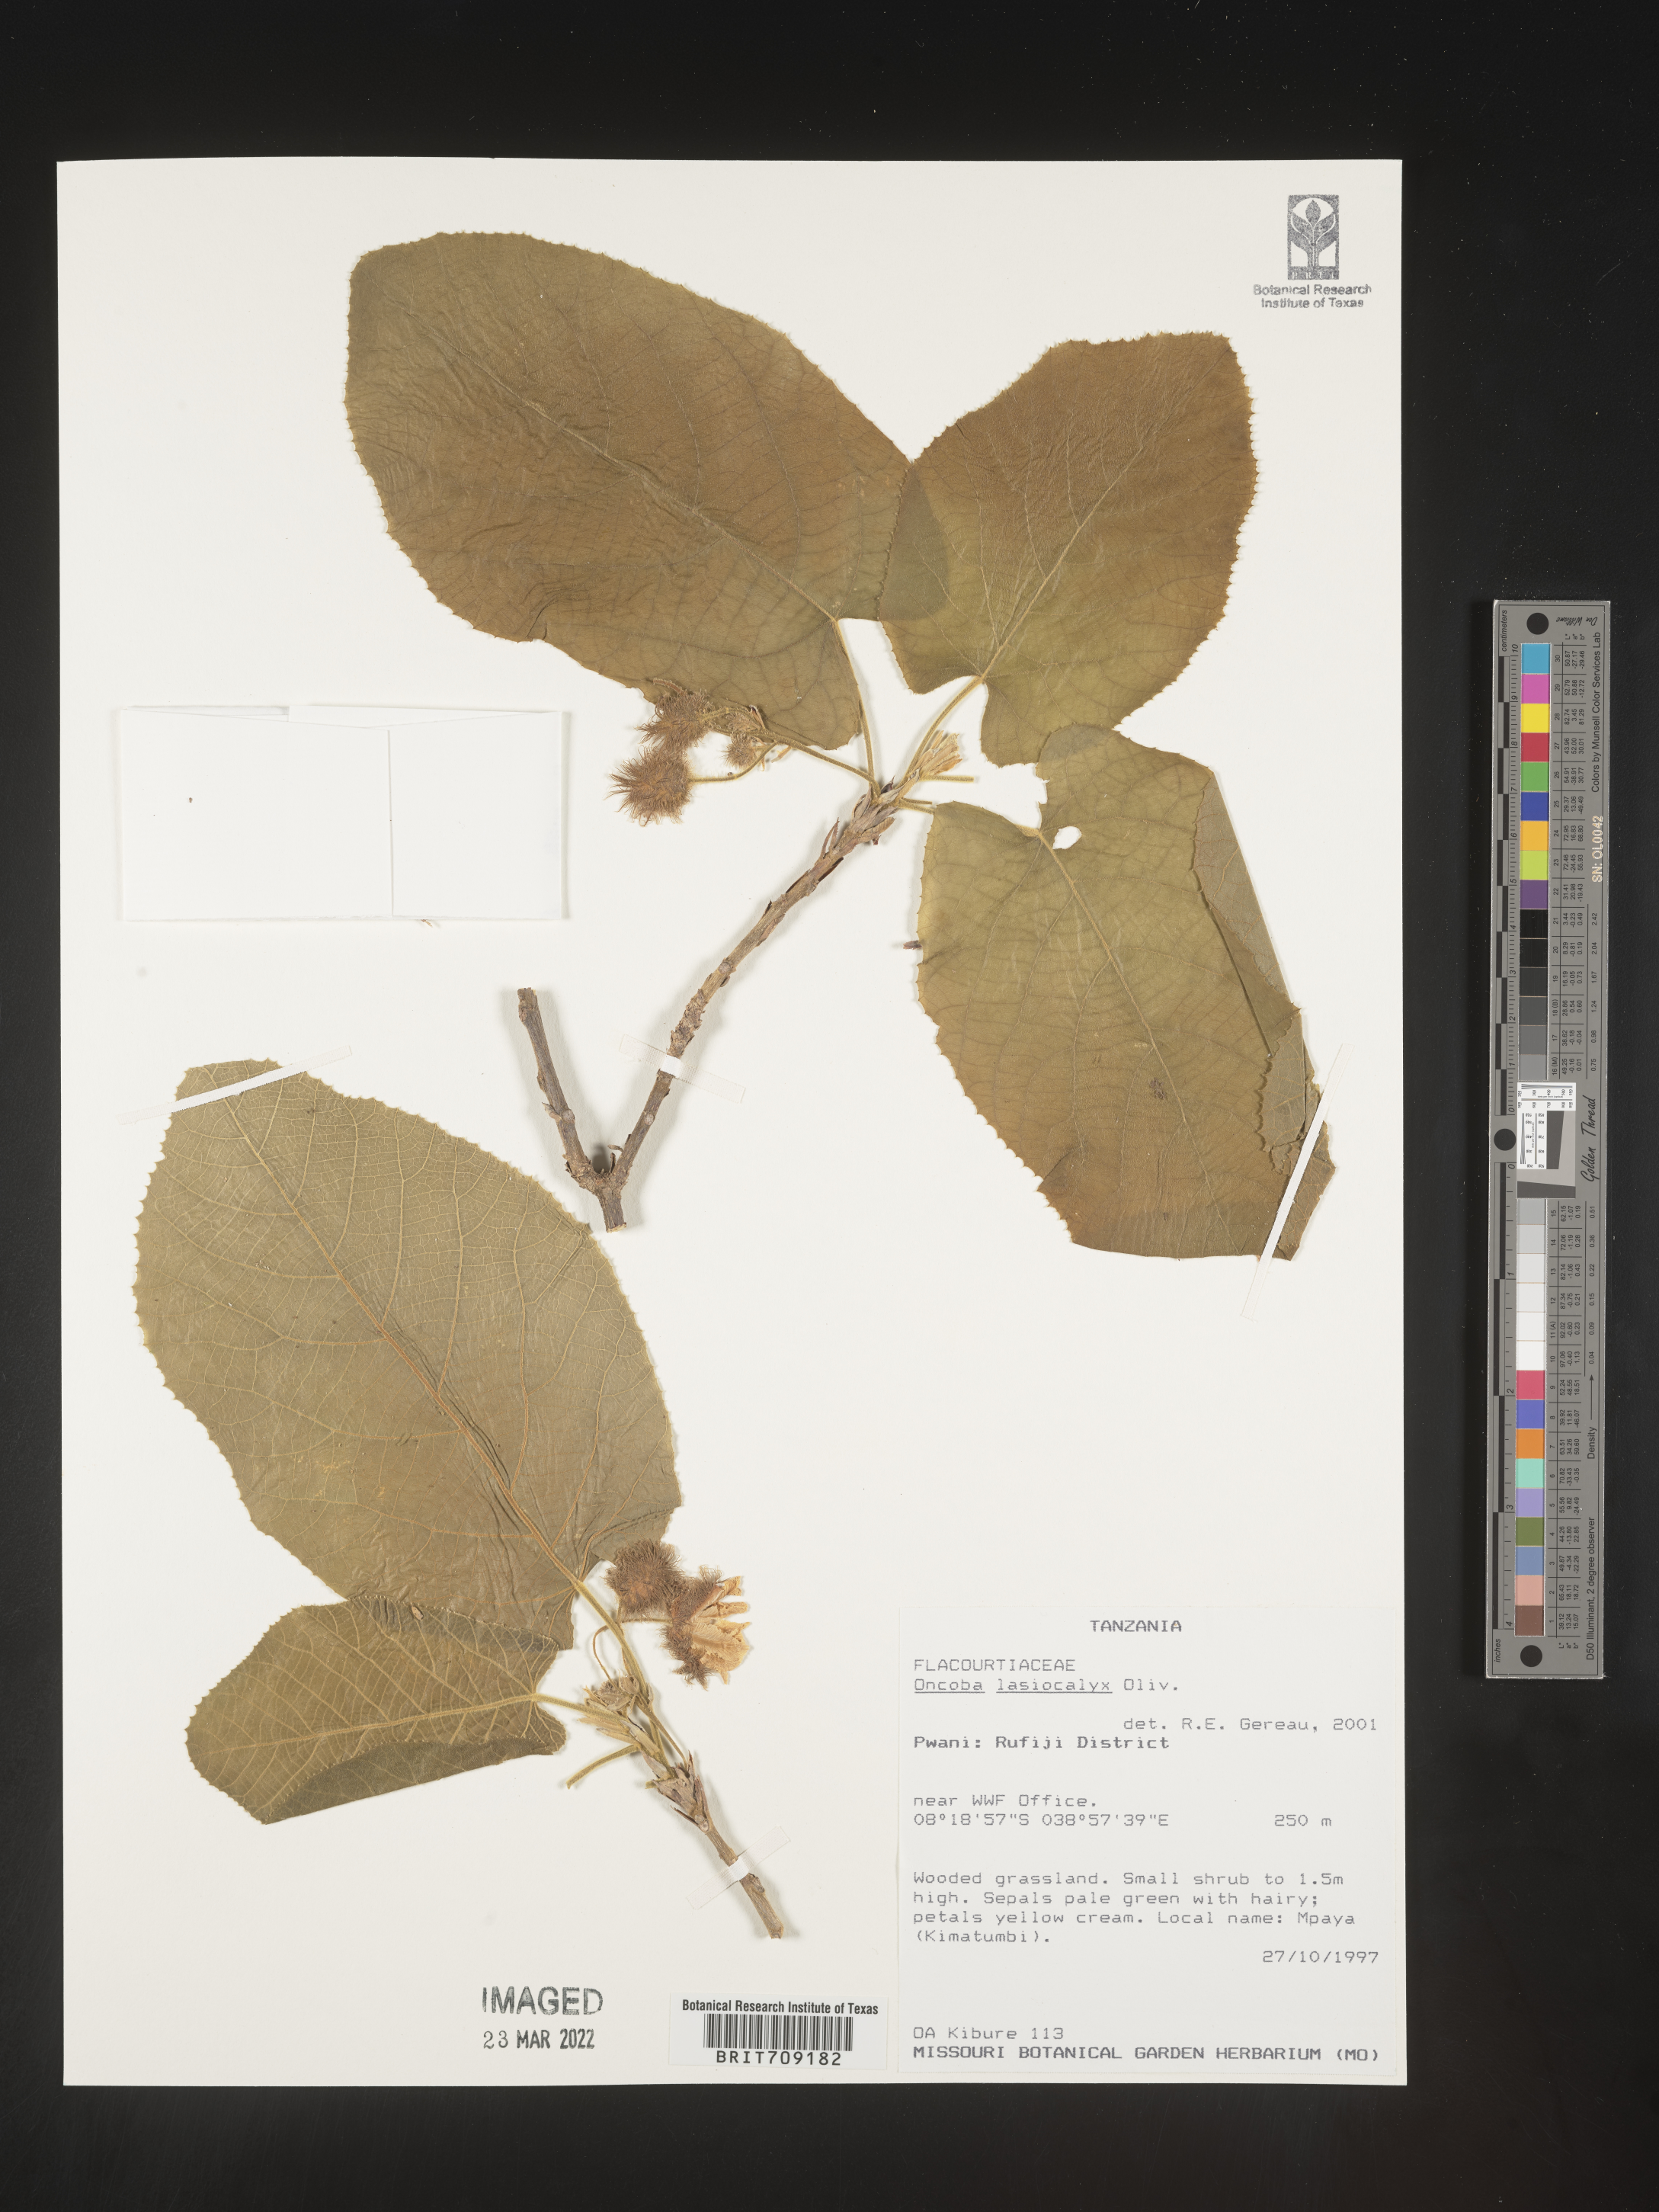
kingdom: Plantae
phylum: Tracheophyta
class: Magnoliopsida
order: Malpighiales
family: Salicaceae
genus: Oncoba
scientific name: Oncoba
